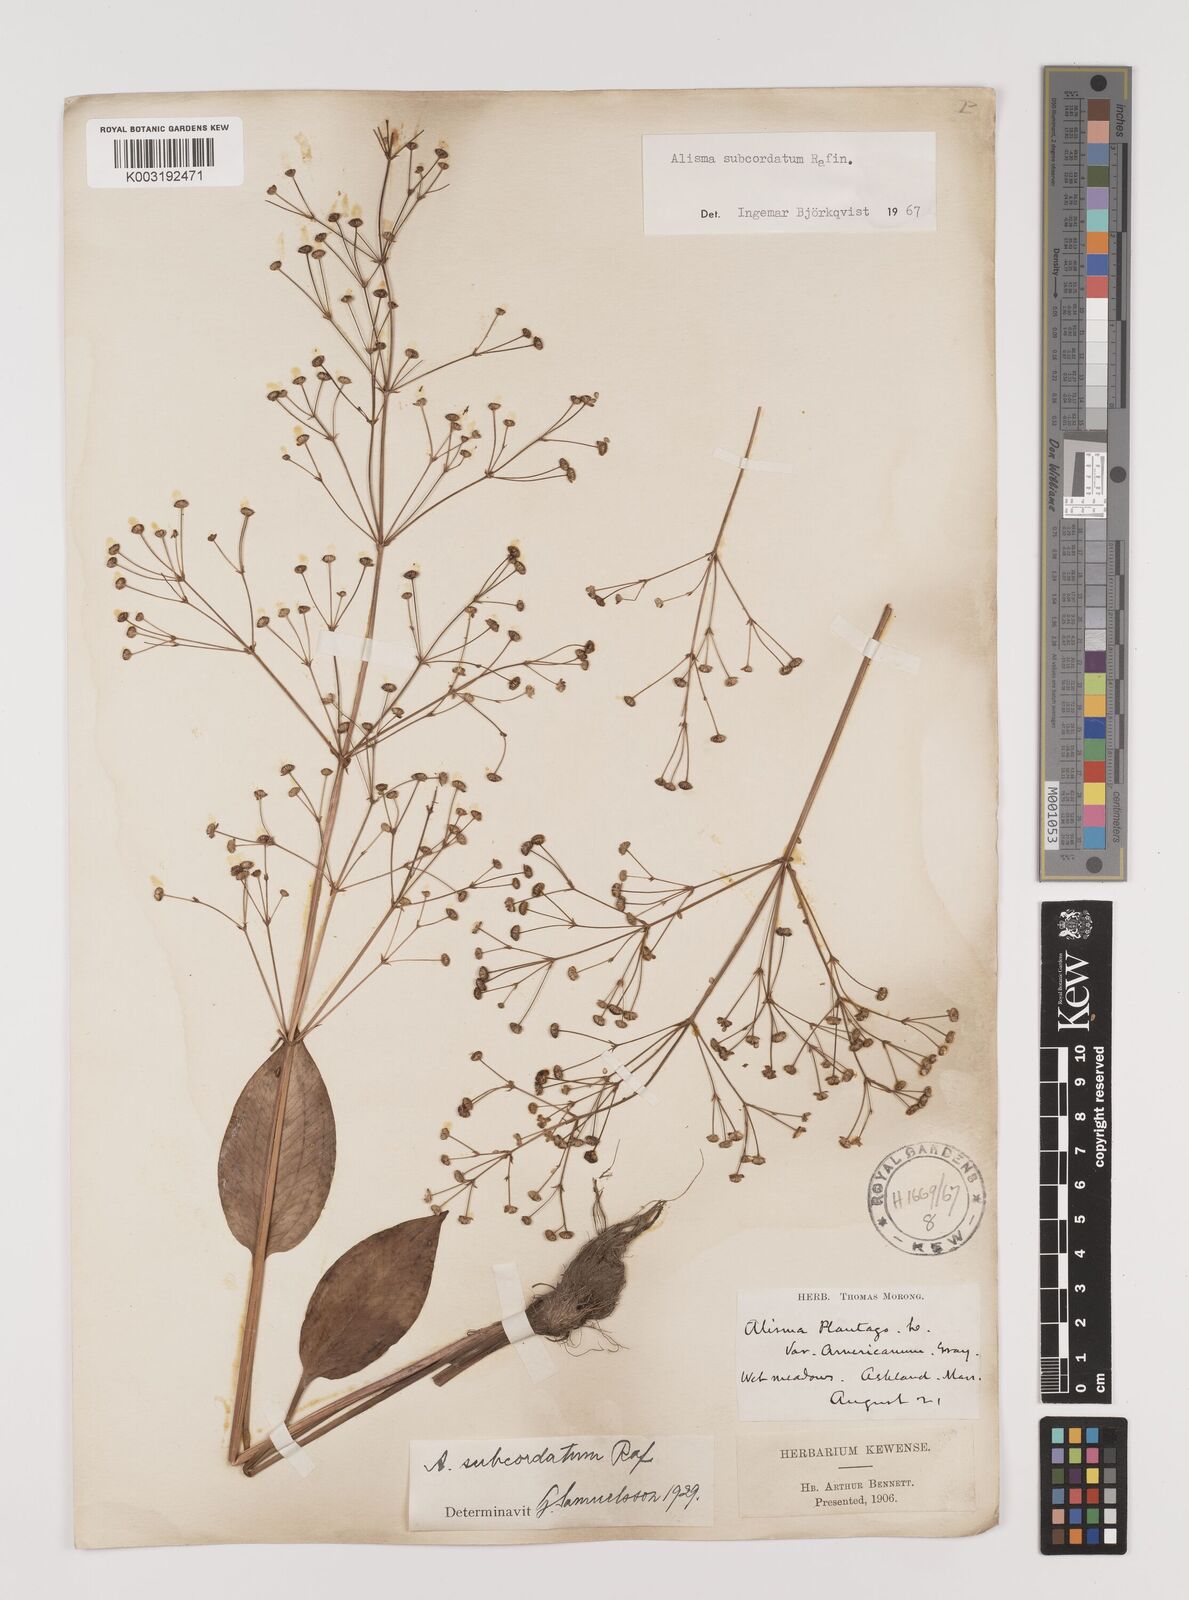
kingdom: Plantae
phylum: Tracheophyta
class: Liliopsida
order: Alismatales
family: Alismataceae
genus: Alisma
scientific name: Alisma subcordatum
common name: Southern water-plantain
